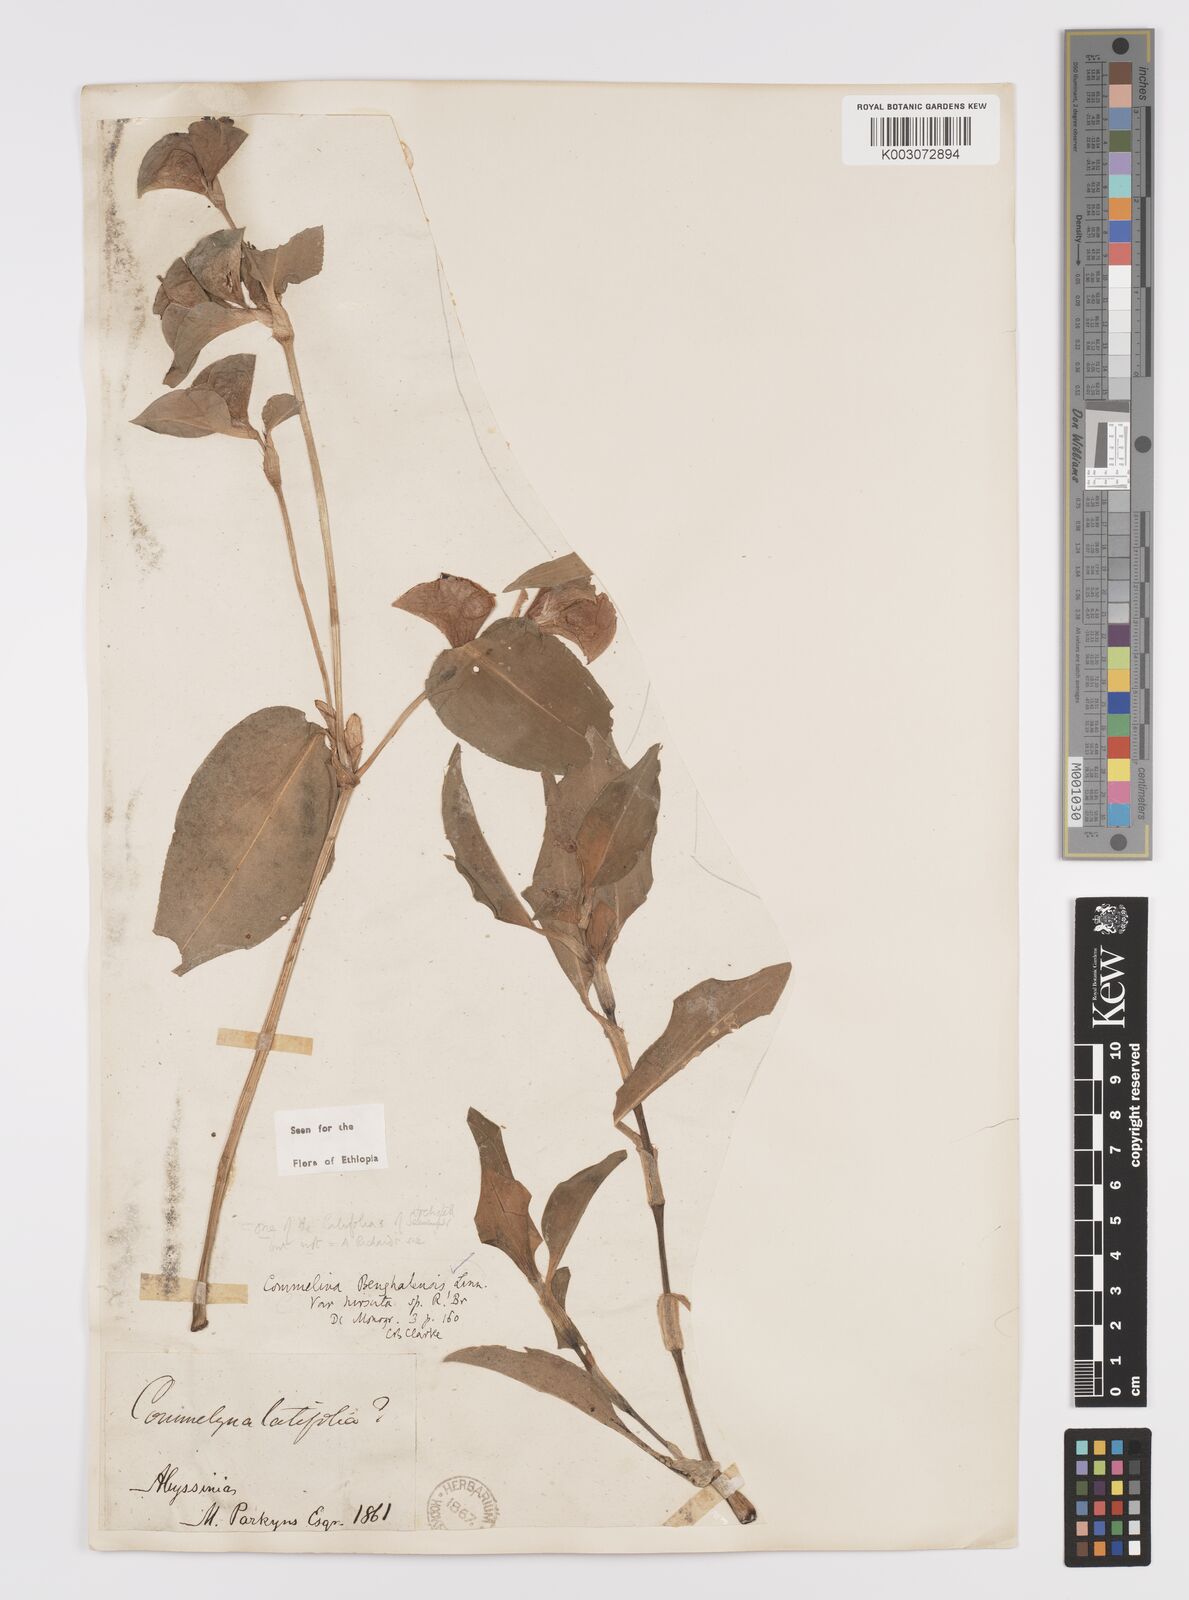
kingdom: Plantae
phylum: Tracheophyta
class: Liliopsida
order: Commelinales
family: Commelinaceae
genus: Commelina
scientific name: Commelina benghalensis
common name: Jio
